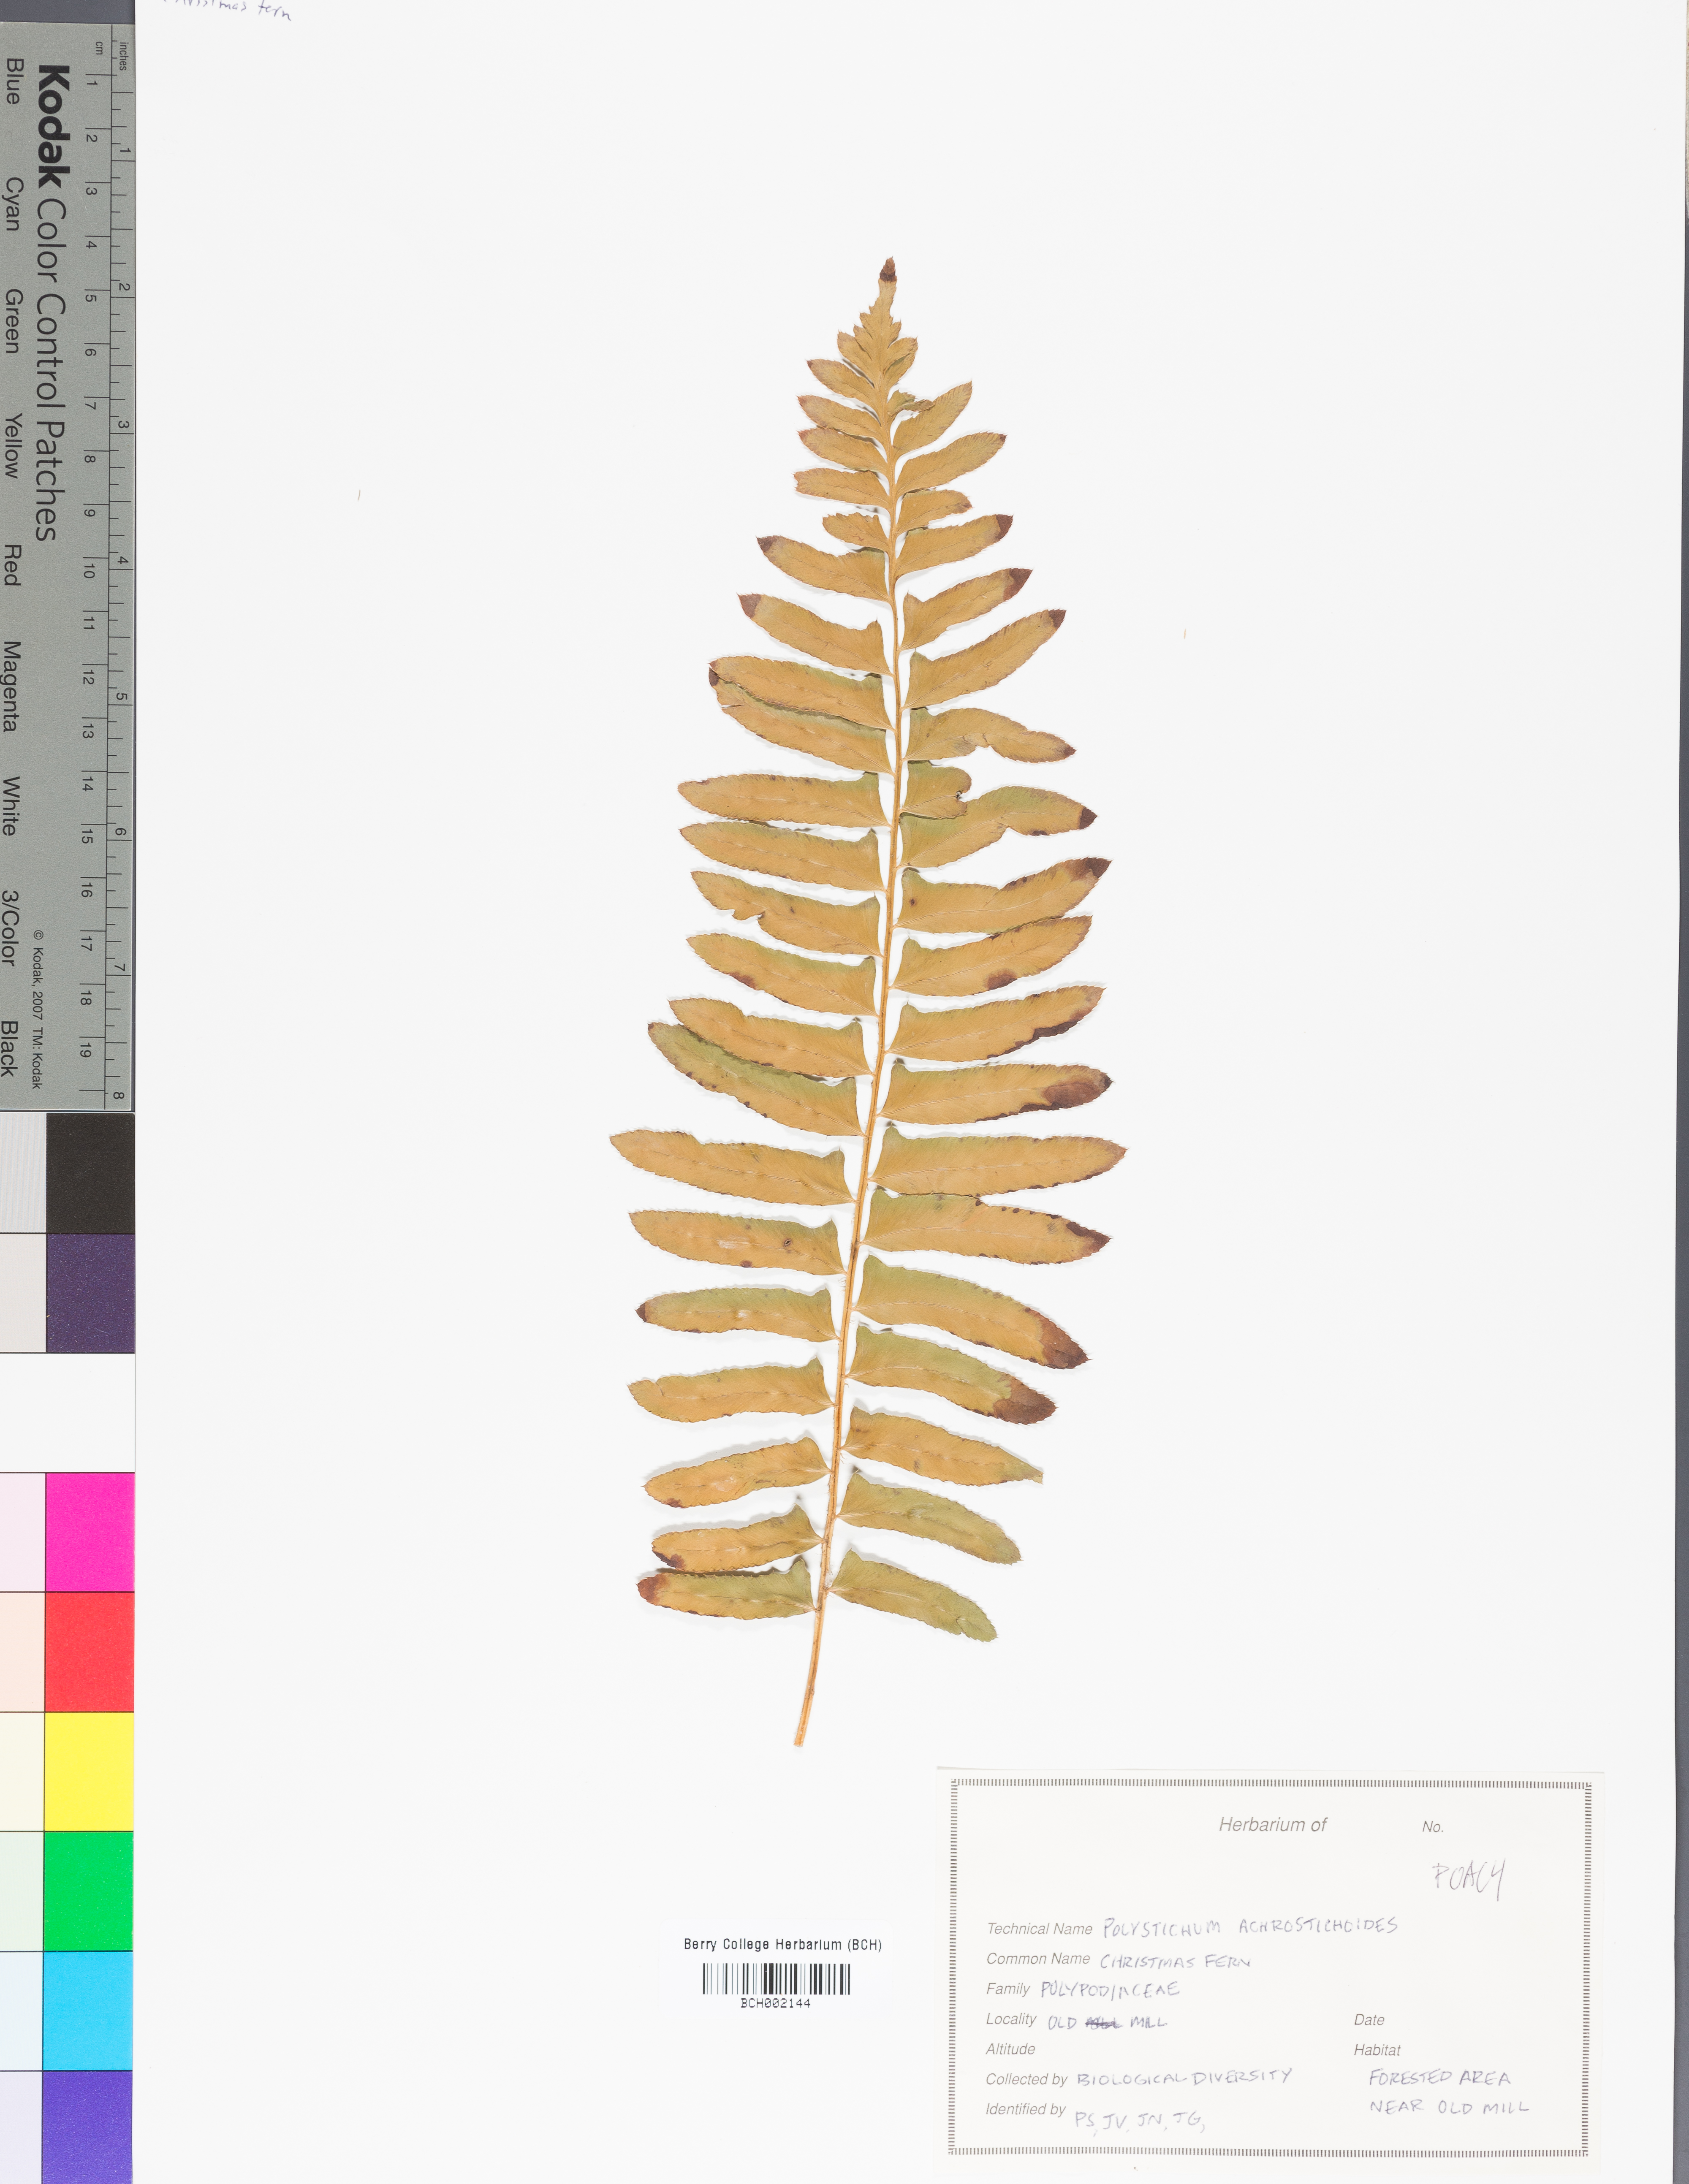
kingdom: Plantae
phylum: Tracheophyta
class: Polypodiopsida
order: Polypodiales
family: Dennstaedtiaceae
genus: Pteridium
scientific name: Pteridium aquilinum
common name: Bracken
